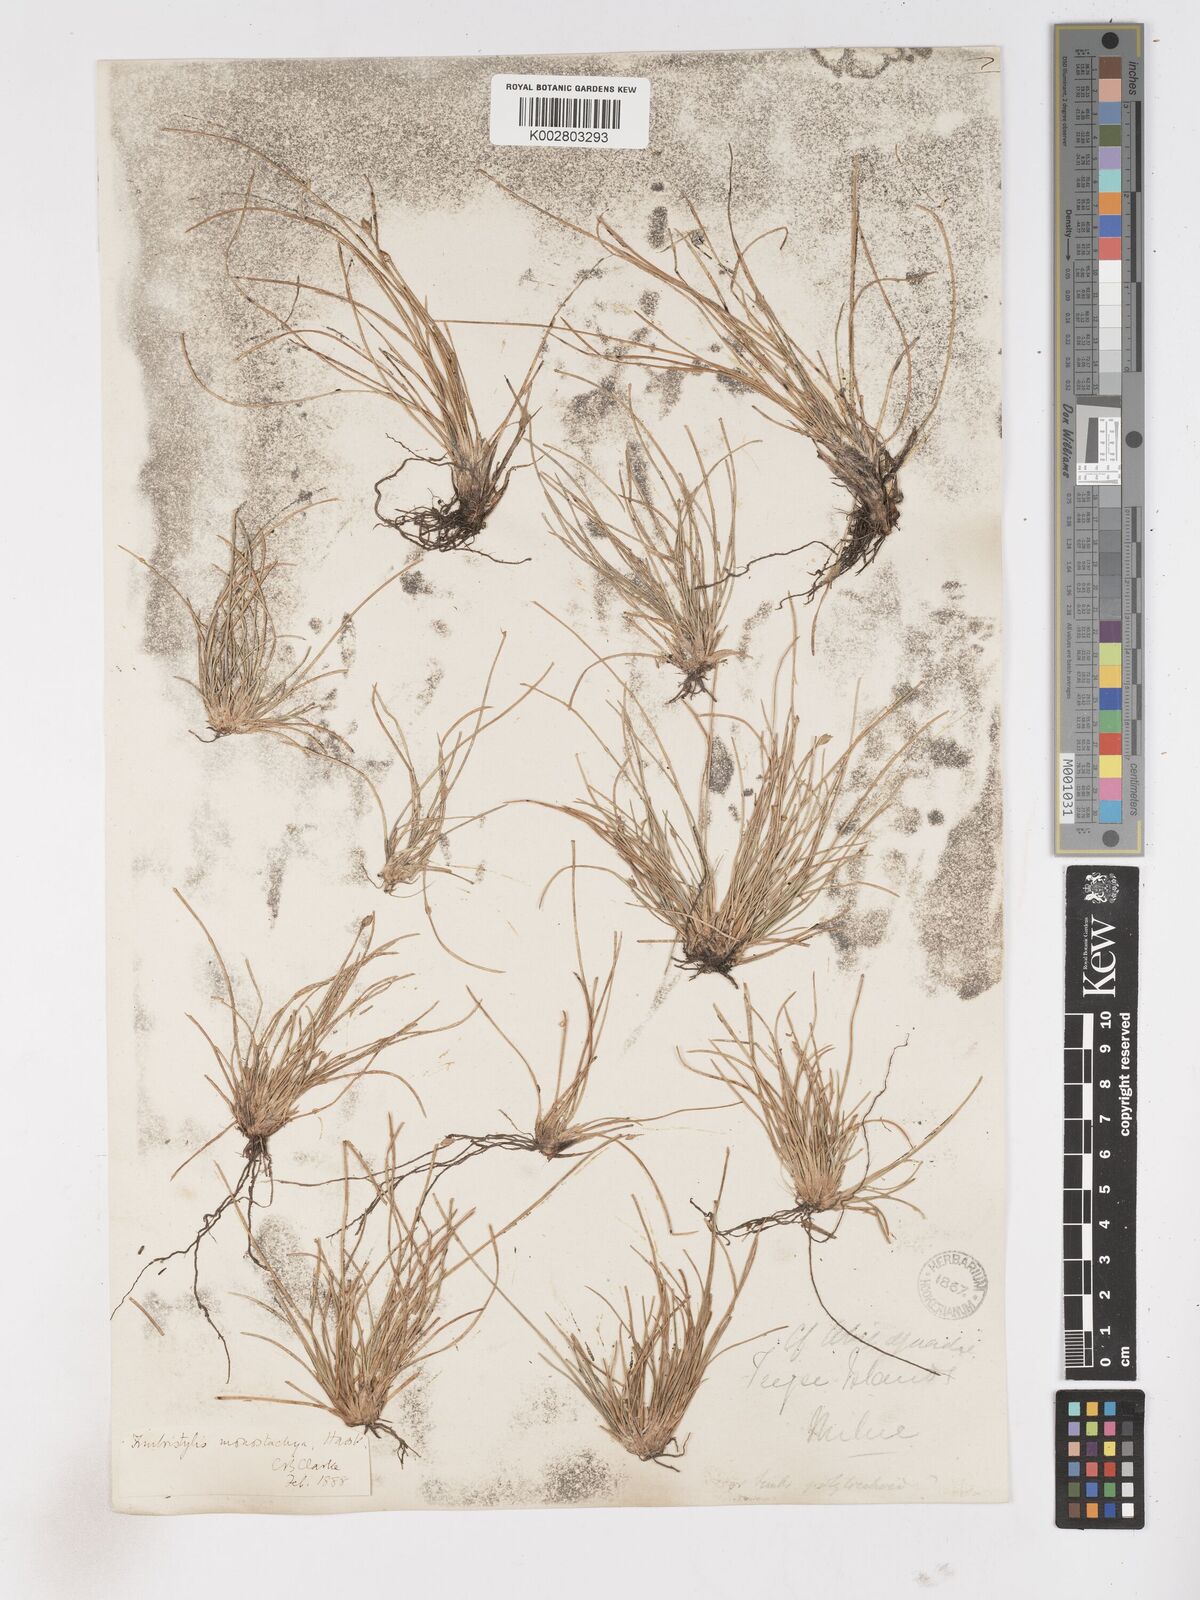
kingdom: Plantae
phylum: Tracheophyta
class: Liliopsida
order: Poales
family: Cyperaceae
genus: Abildgaardia
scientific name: Abildgaardia ovata
